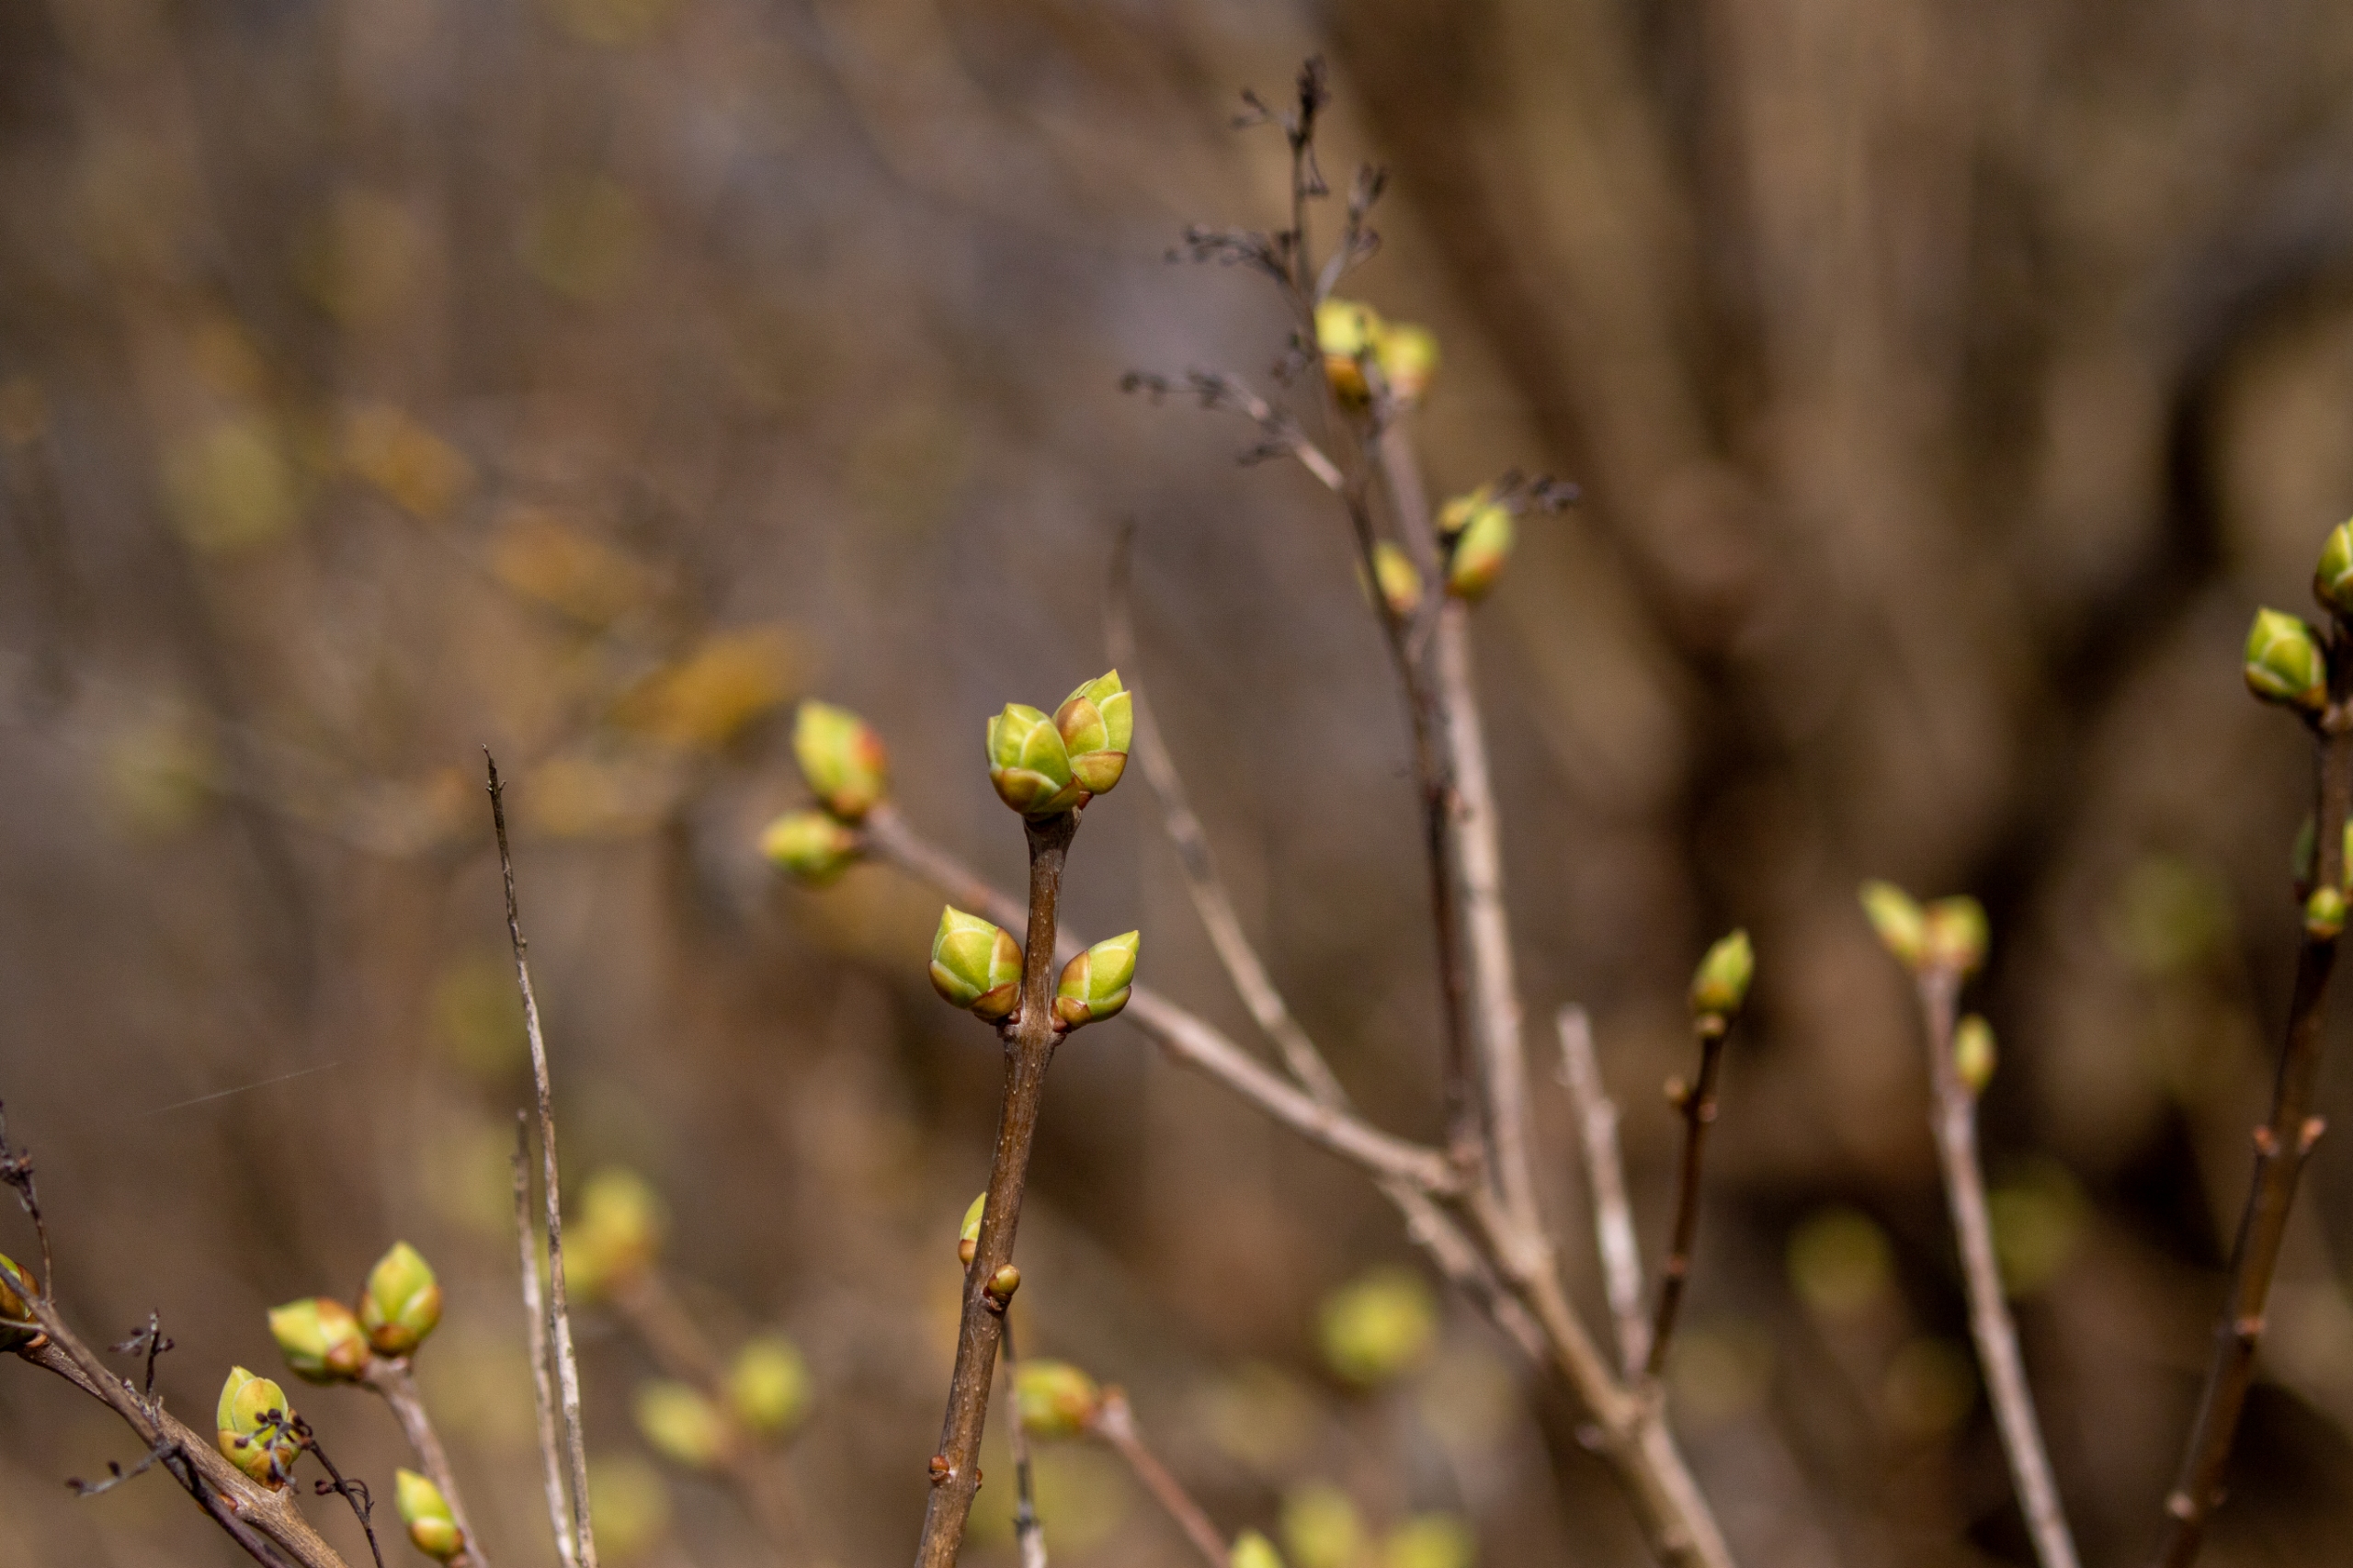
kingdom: Plantae
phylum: Tracheophyta
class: Magnoliopsida
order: Lamiales
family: Oleaceae
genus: Syringa
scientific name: Syringa vulgaris
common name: Syren
